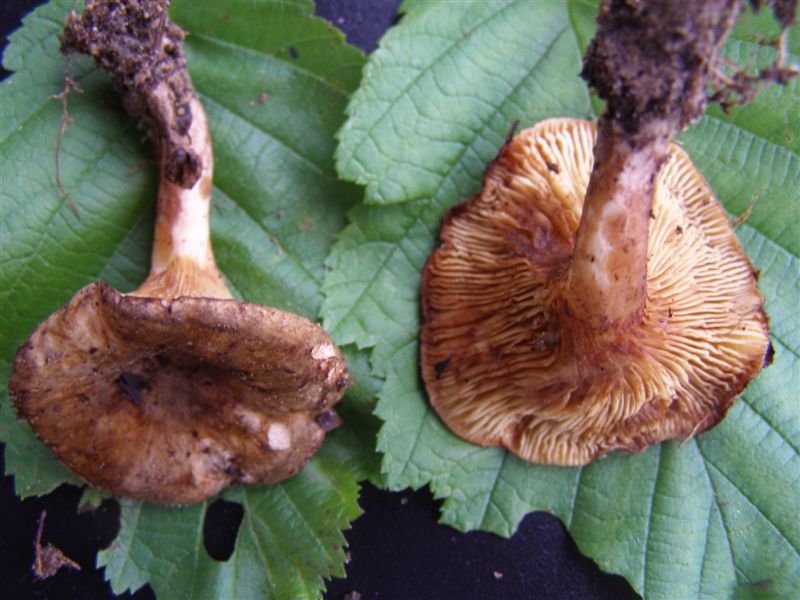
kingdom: Fungi
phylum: Basidiomycota
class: Agaricomycetes
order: Boletales
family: Paxillaceae
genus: Paxillus
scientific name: Paxillus rubicundulus
